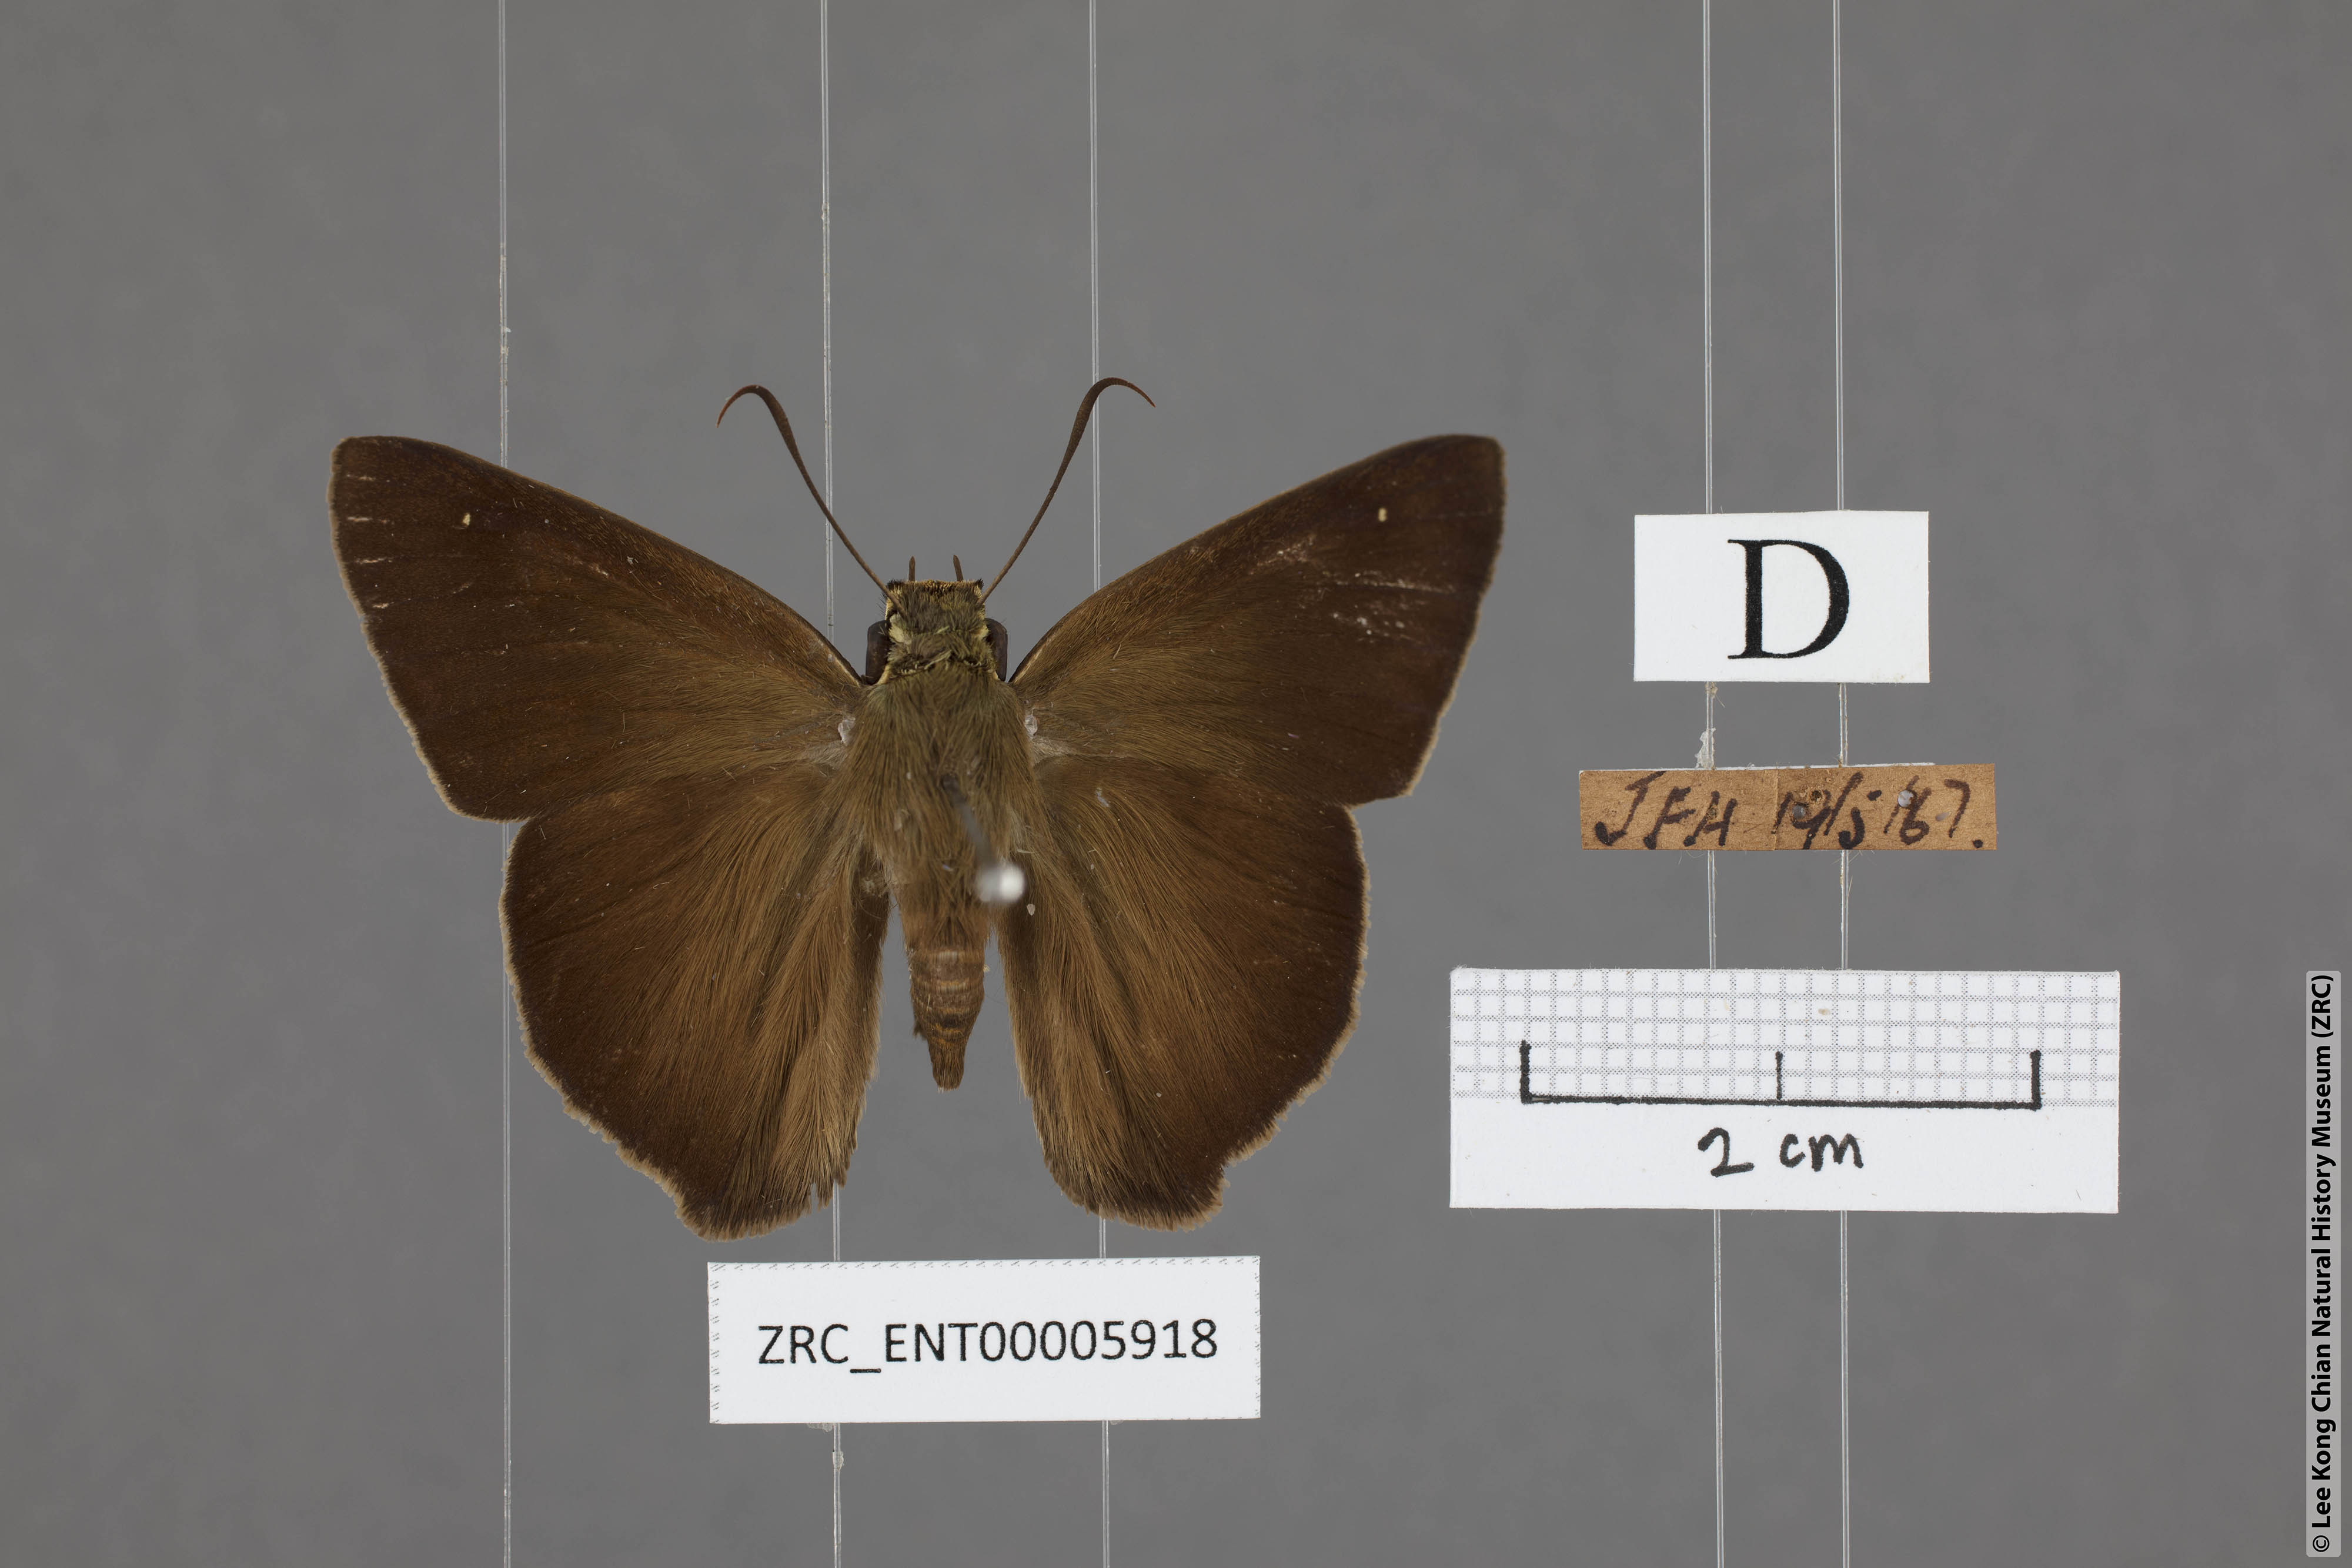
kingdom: Animalia
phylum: Arthropoda
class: Insecta
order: Lepidoptera
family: Hesperiidae
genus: Hasora
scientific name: Hasora vitta
